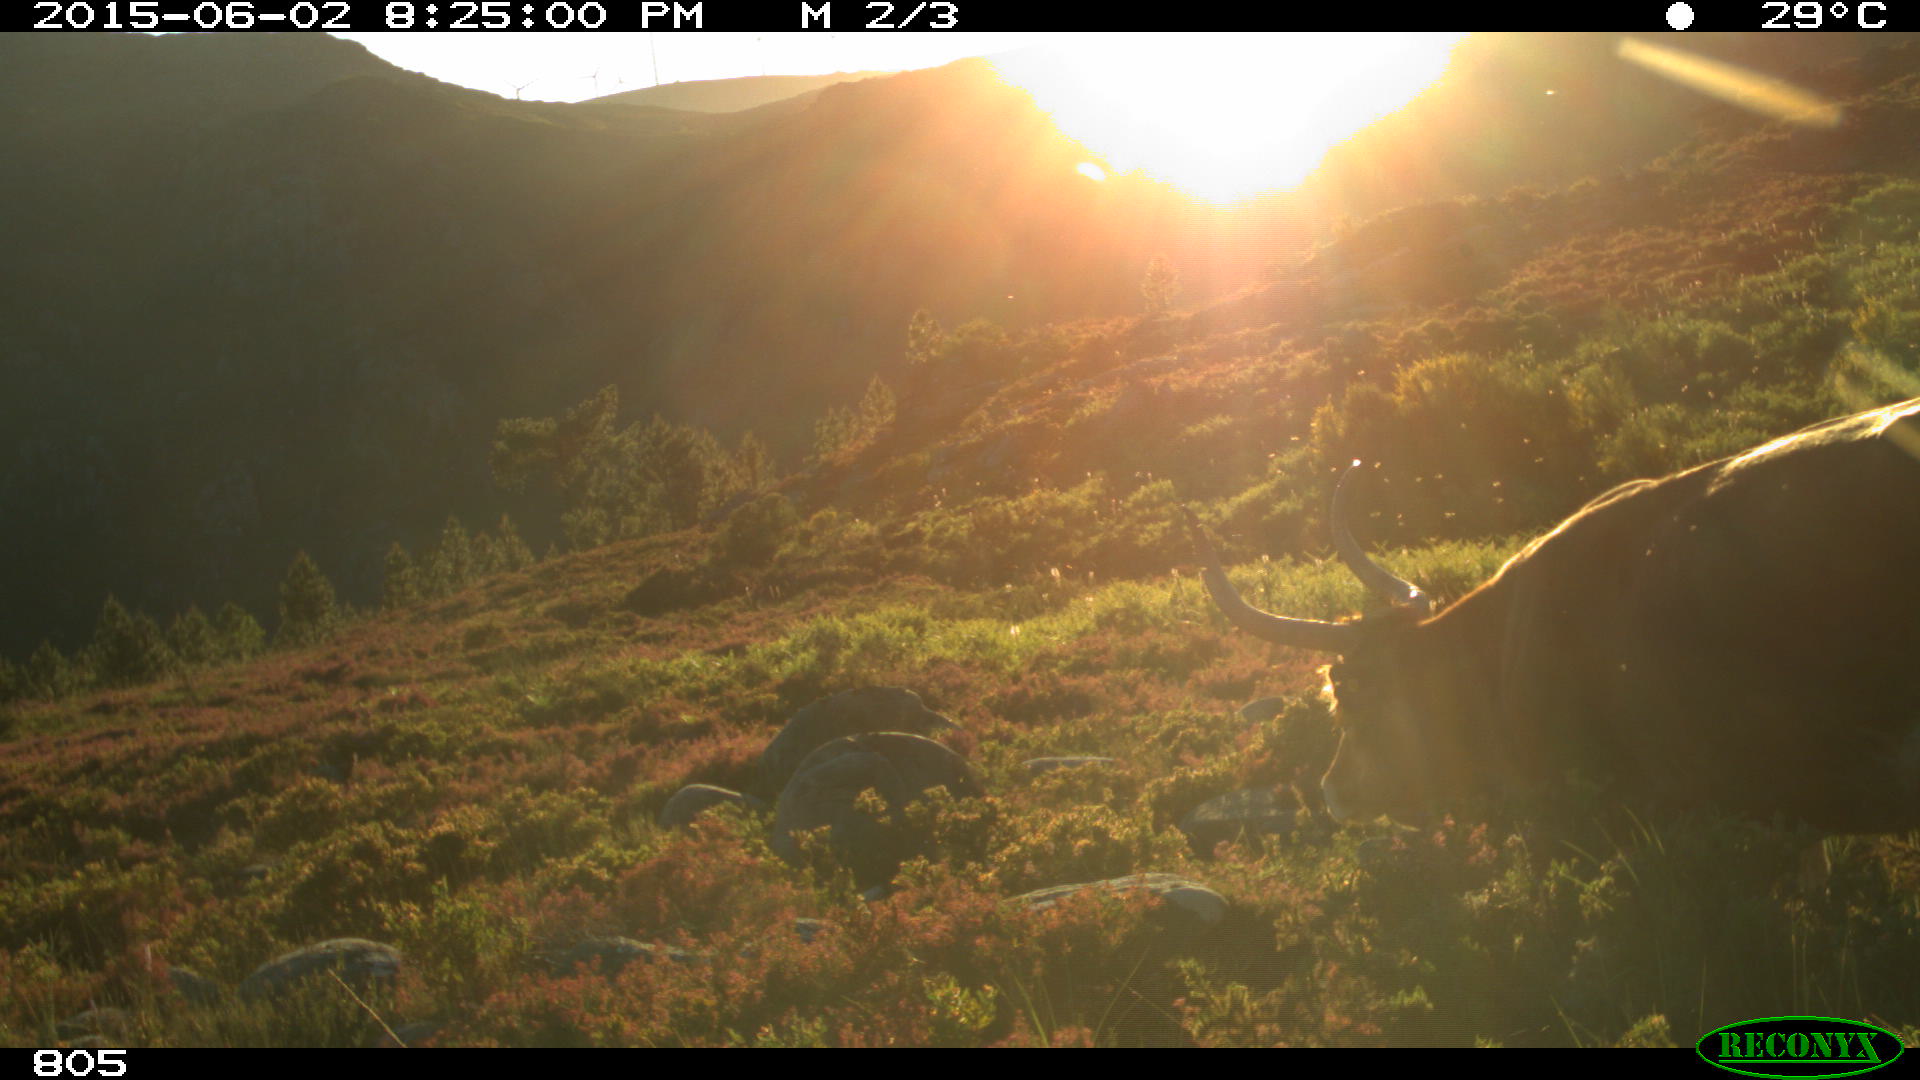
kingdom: Animalia
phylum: Chordata
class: Mammalia
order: Artiodactyla
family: Bovidae
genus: Bos
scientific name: Bos taurus
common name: Domesticated cattle
